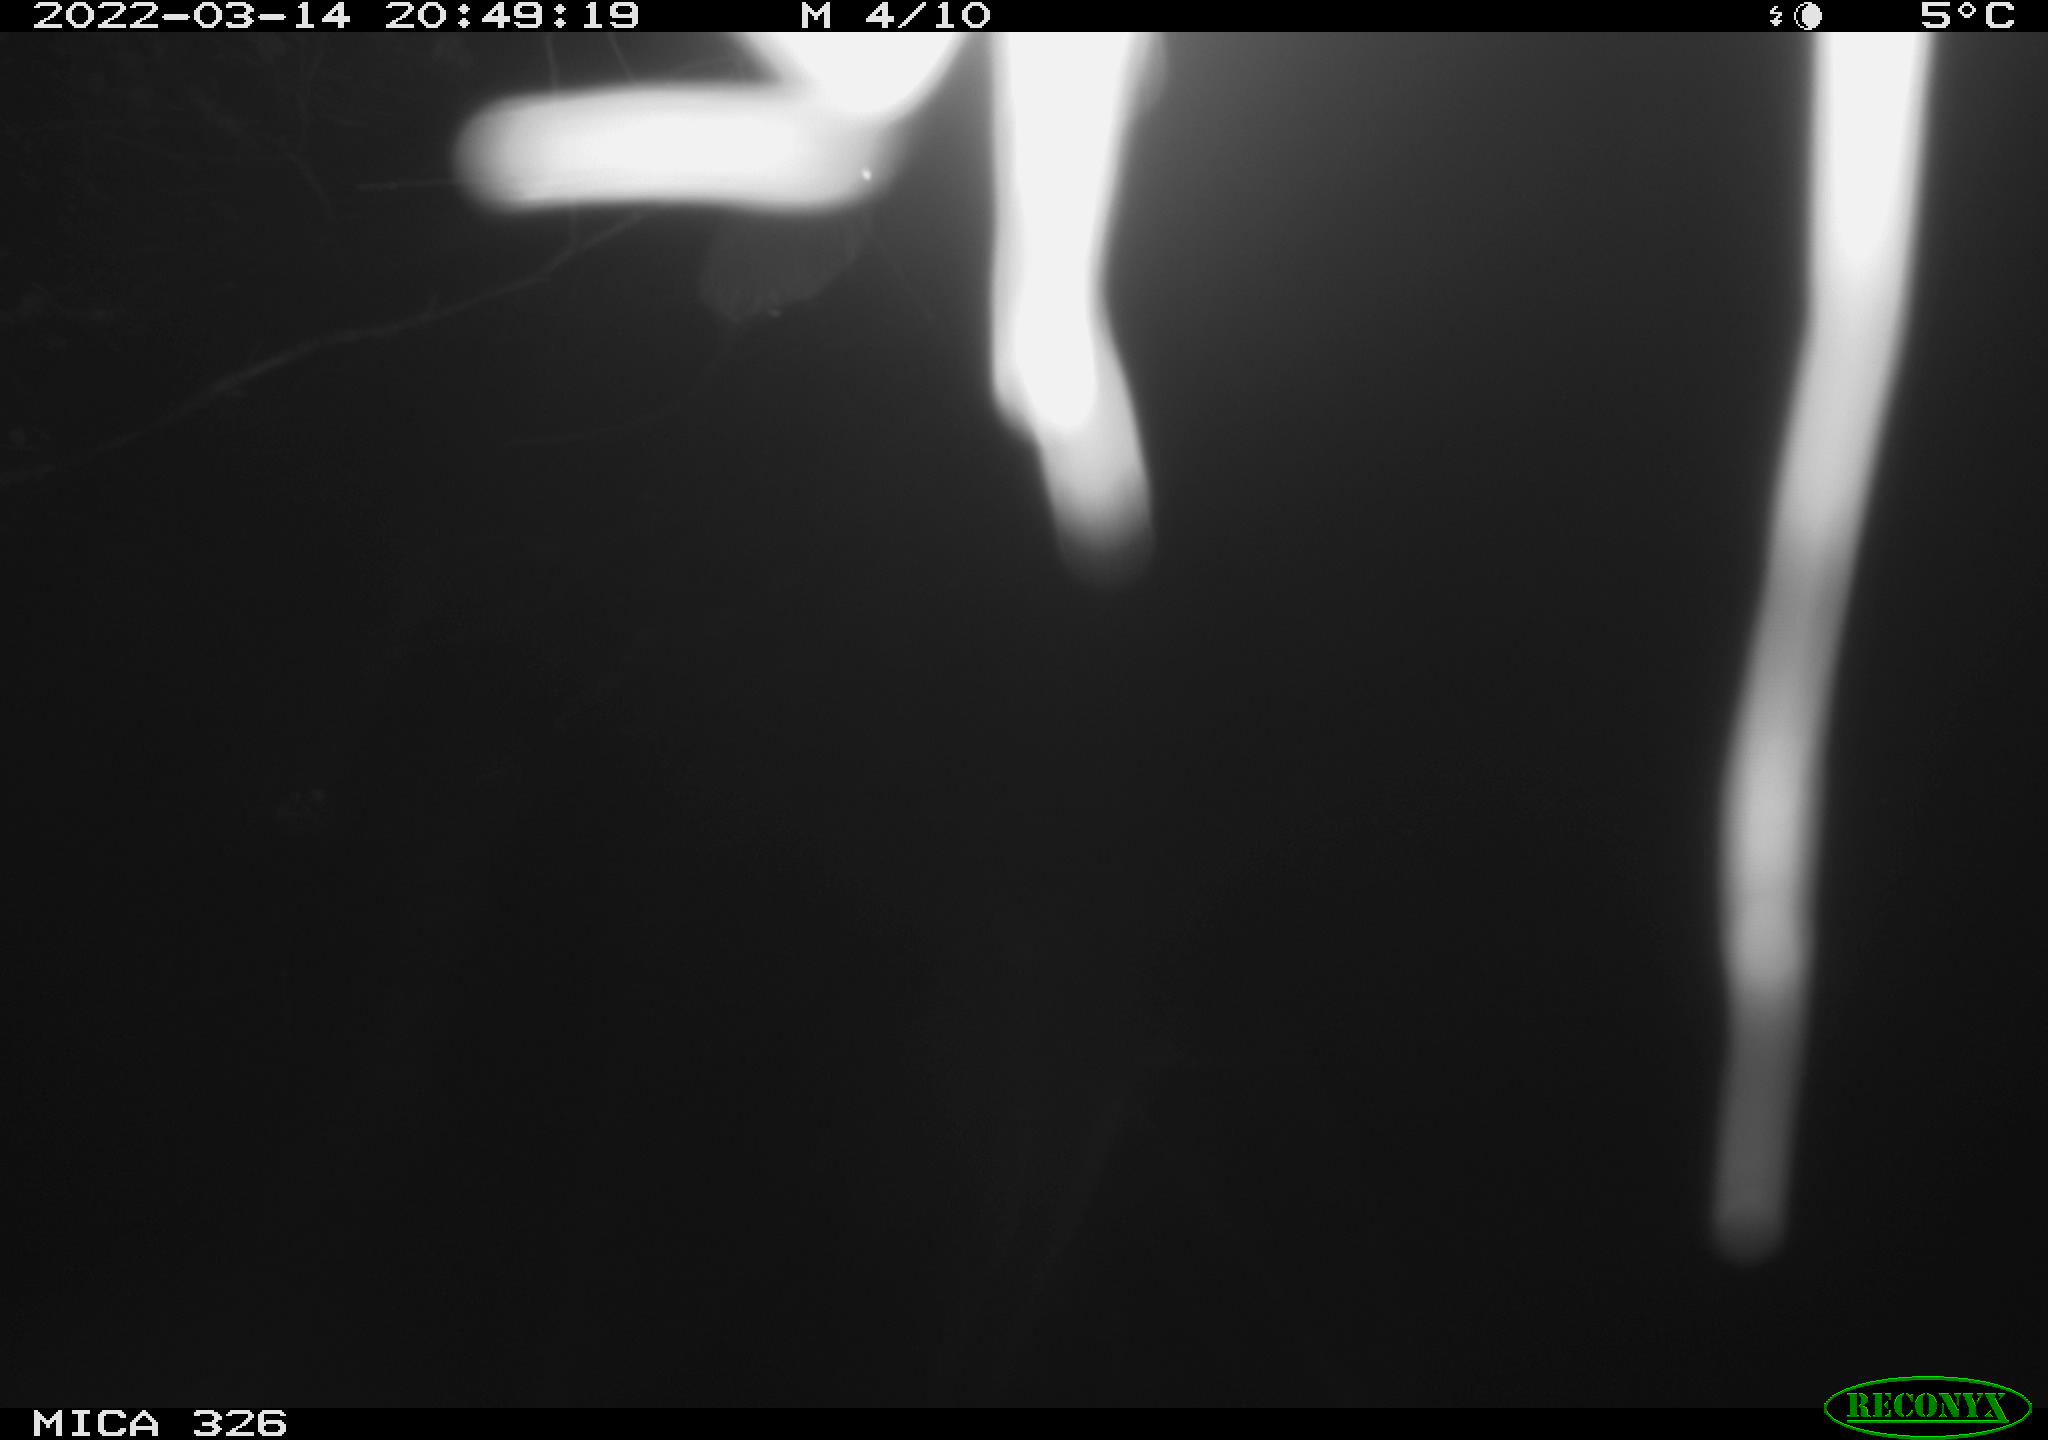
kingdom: Animalia
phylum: Chordata
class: Mammalia
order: Rodentia
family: Muridae
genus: Rattus
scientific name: Rattus norvegicus
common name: Brown rat
